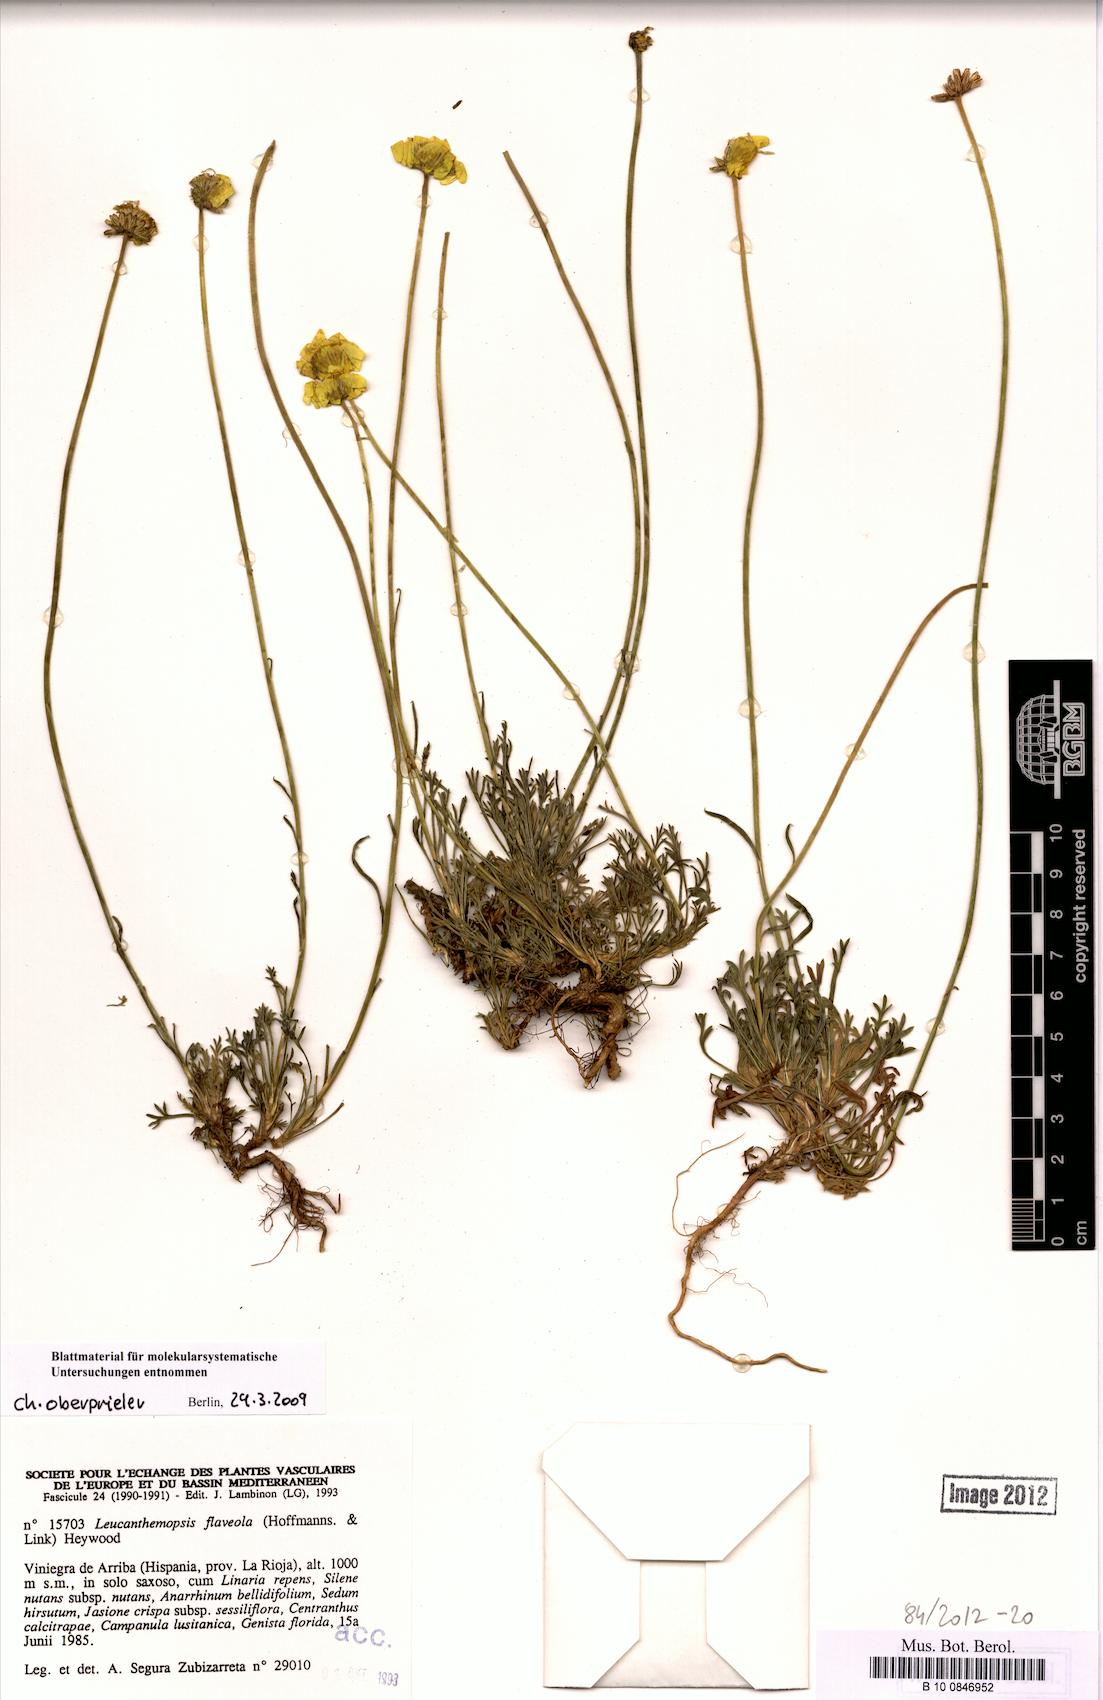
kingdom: Plantae
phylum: Tracheophyta
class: Magnoliopsida
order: Asterales
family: Asteraceae
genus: Leucanthemopsis
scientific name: Leucanthemopsis flaveola
